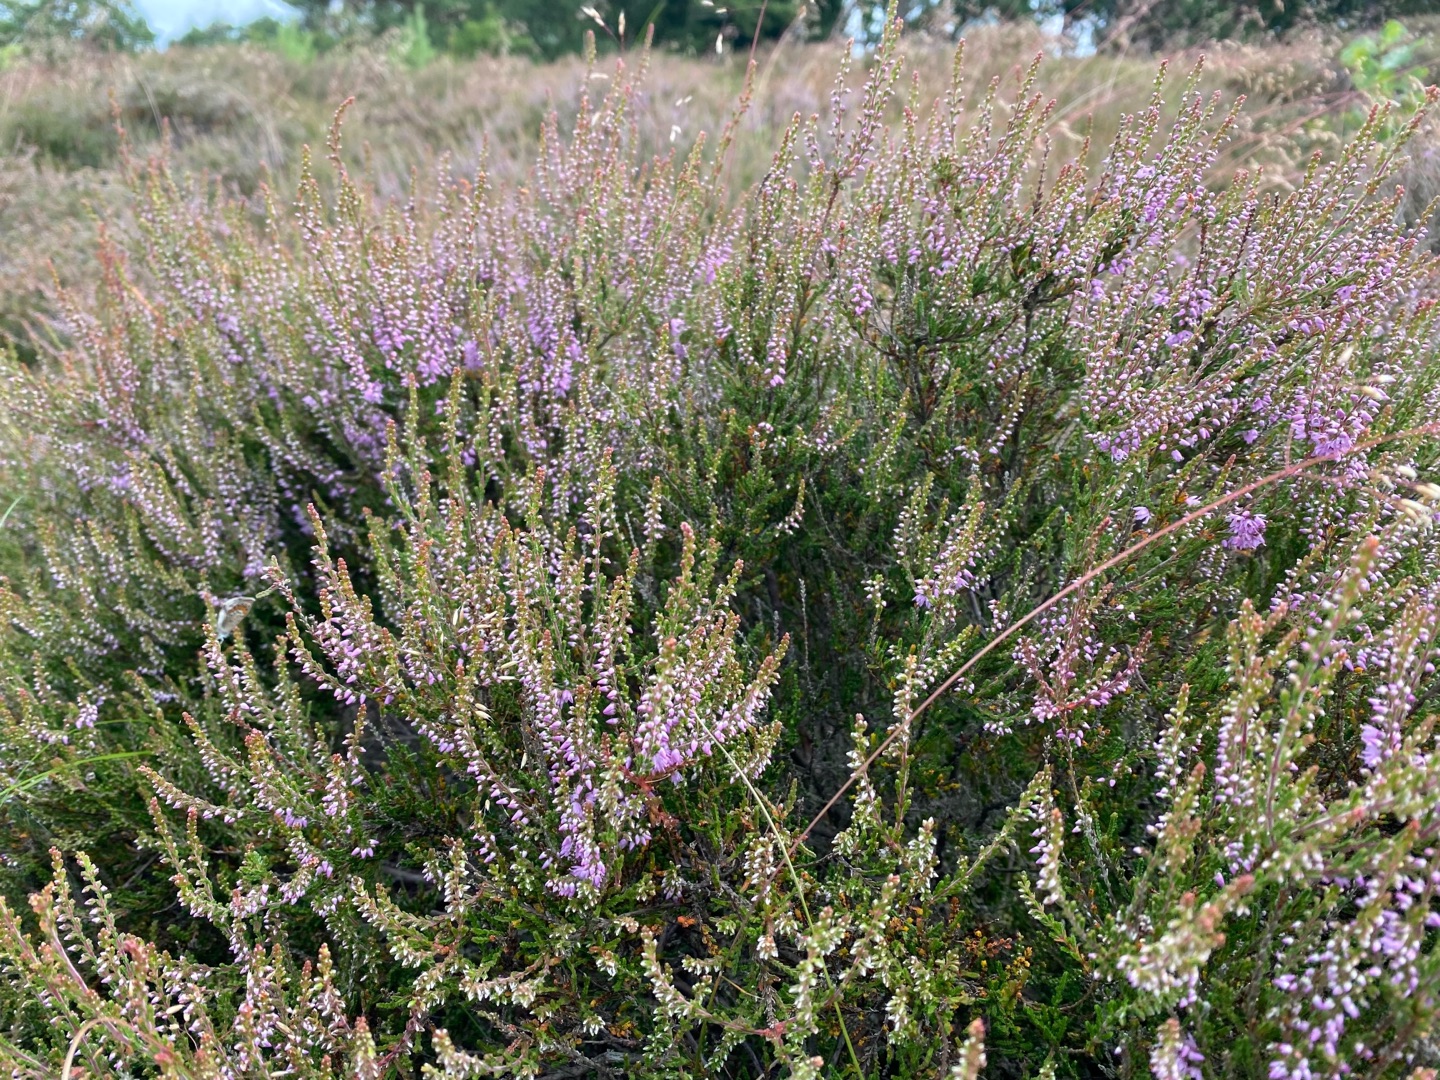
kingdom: Plantae
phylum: Tracheophyta
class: Magnoliopsida
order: Ericales
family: Ericaceae
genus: Calluna
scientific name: Calluna vulgaris
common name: Hedelyng
